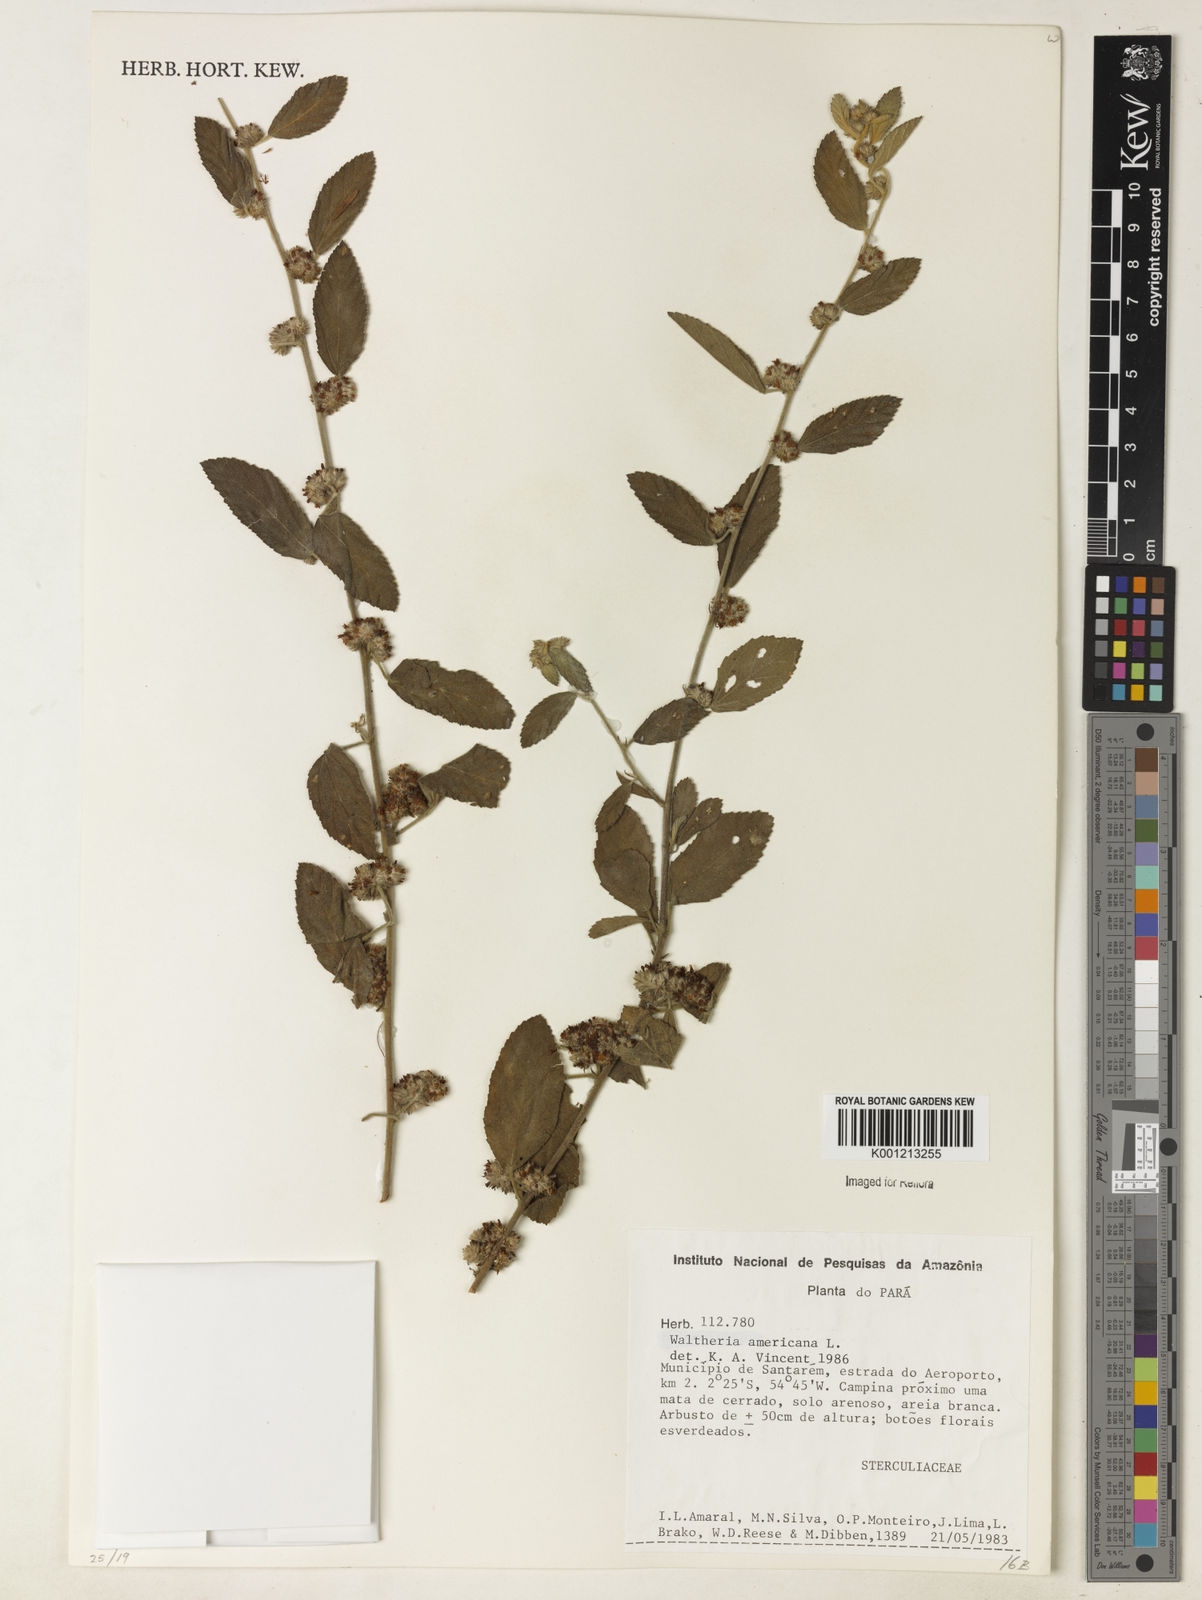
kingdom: Plantae
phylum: Tracheophyta
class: Magnoliopsida
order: Malvales
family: Malvaceae
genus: Waltheria
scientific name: Waltheria indica
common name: Leather-coat
